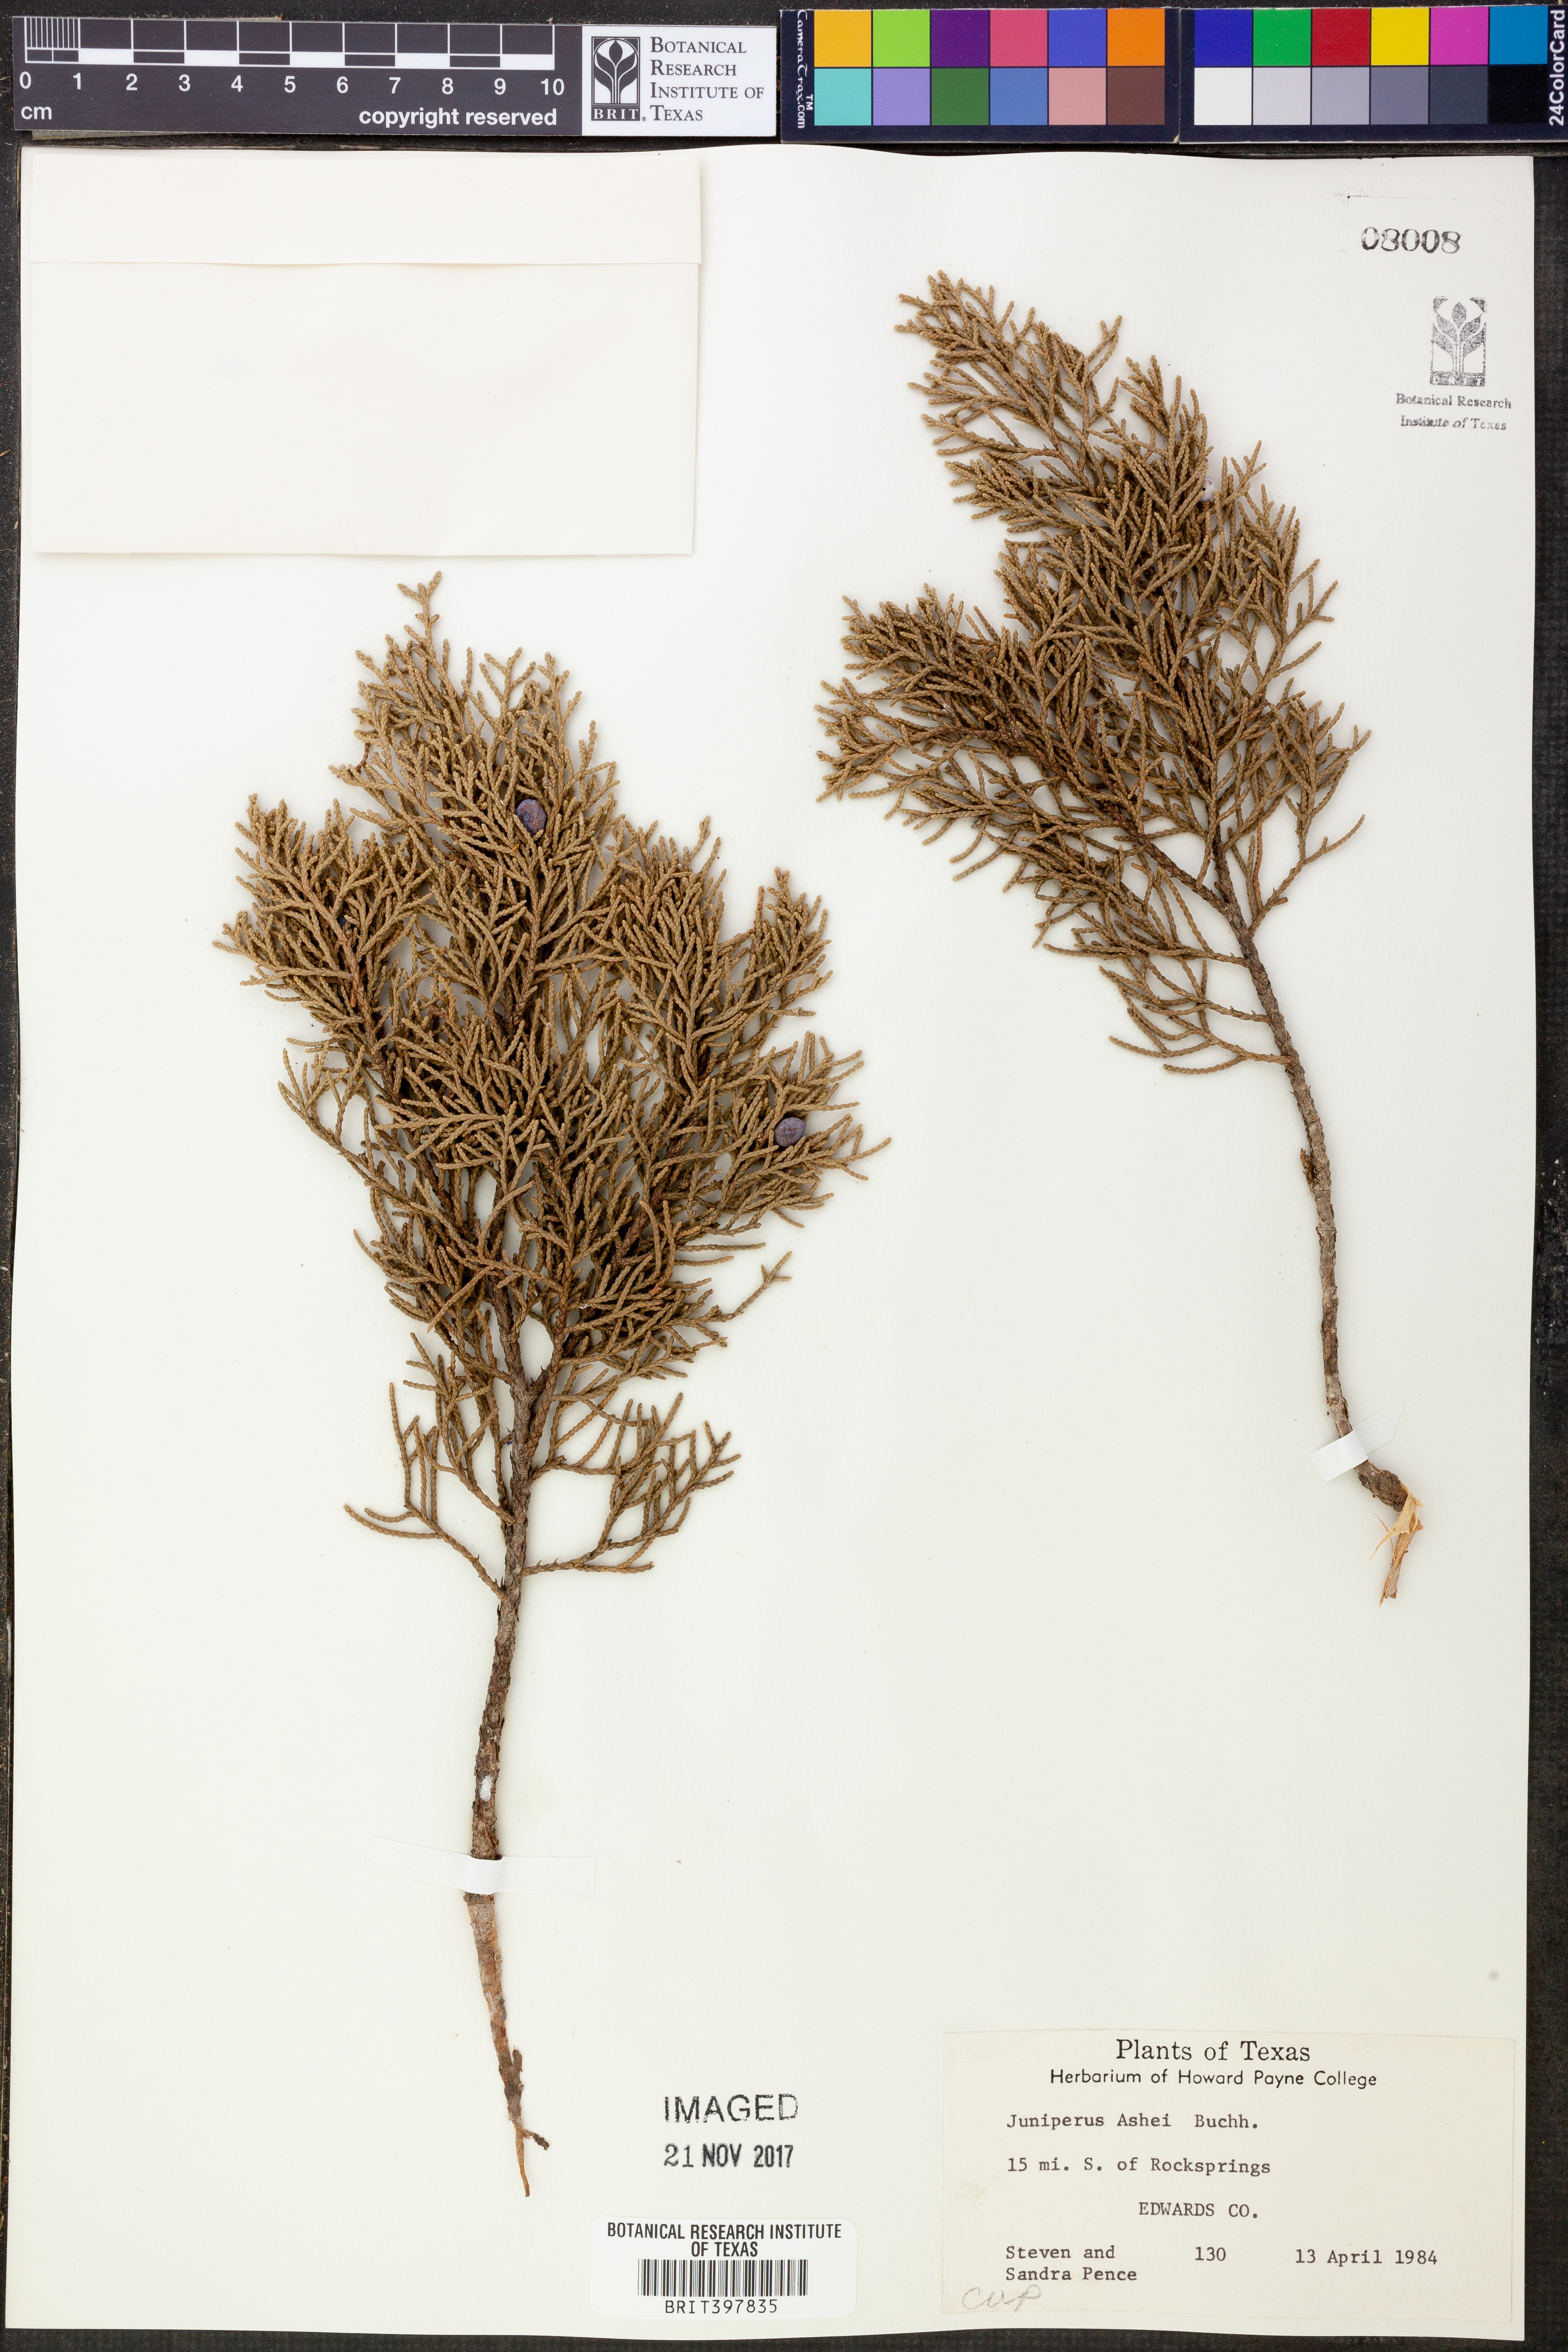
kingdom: Plantae
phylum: Tracheophyta
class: Pinopsida
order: Pinales
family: Cupressaceae
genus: Juniperus
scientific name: Juniperus ashei
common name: Mexican juniper
